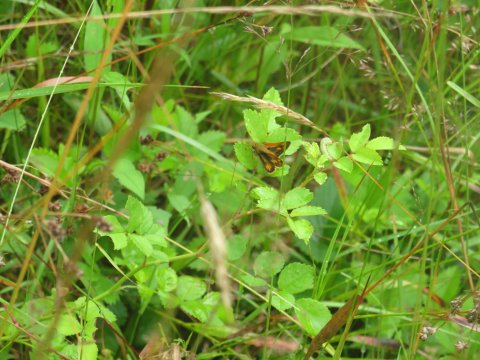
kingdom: Animalia
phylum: Arthropoda
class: Insecta
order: Lepidoptera
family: Hesperiidae
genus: Polites
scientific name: Polites
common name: Long Dash Skipper
